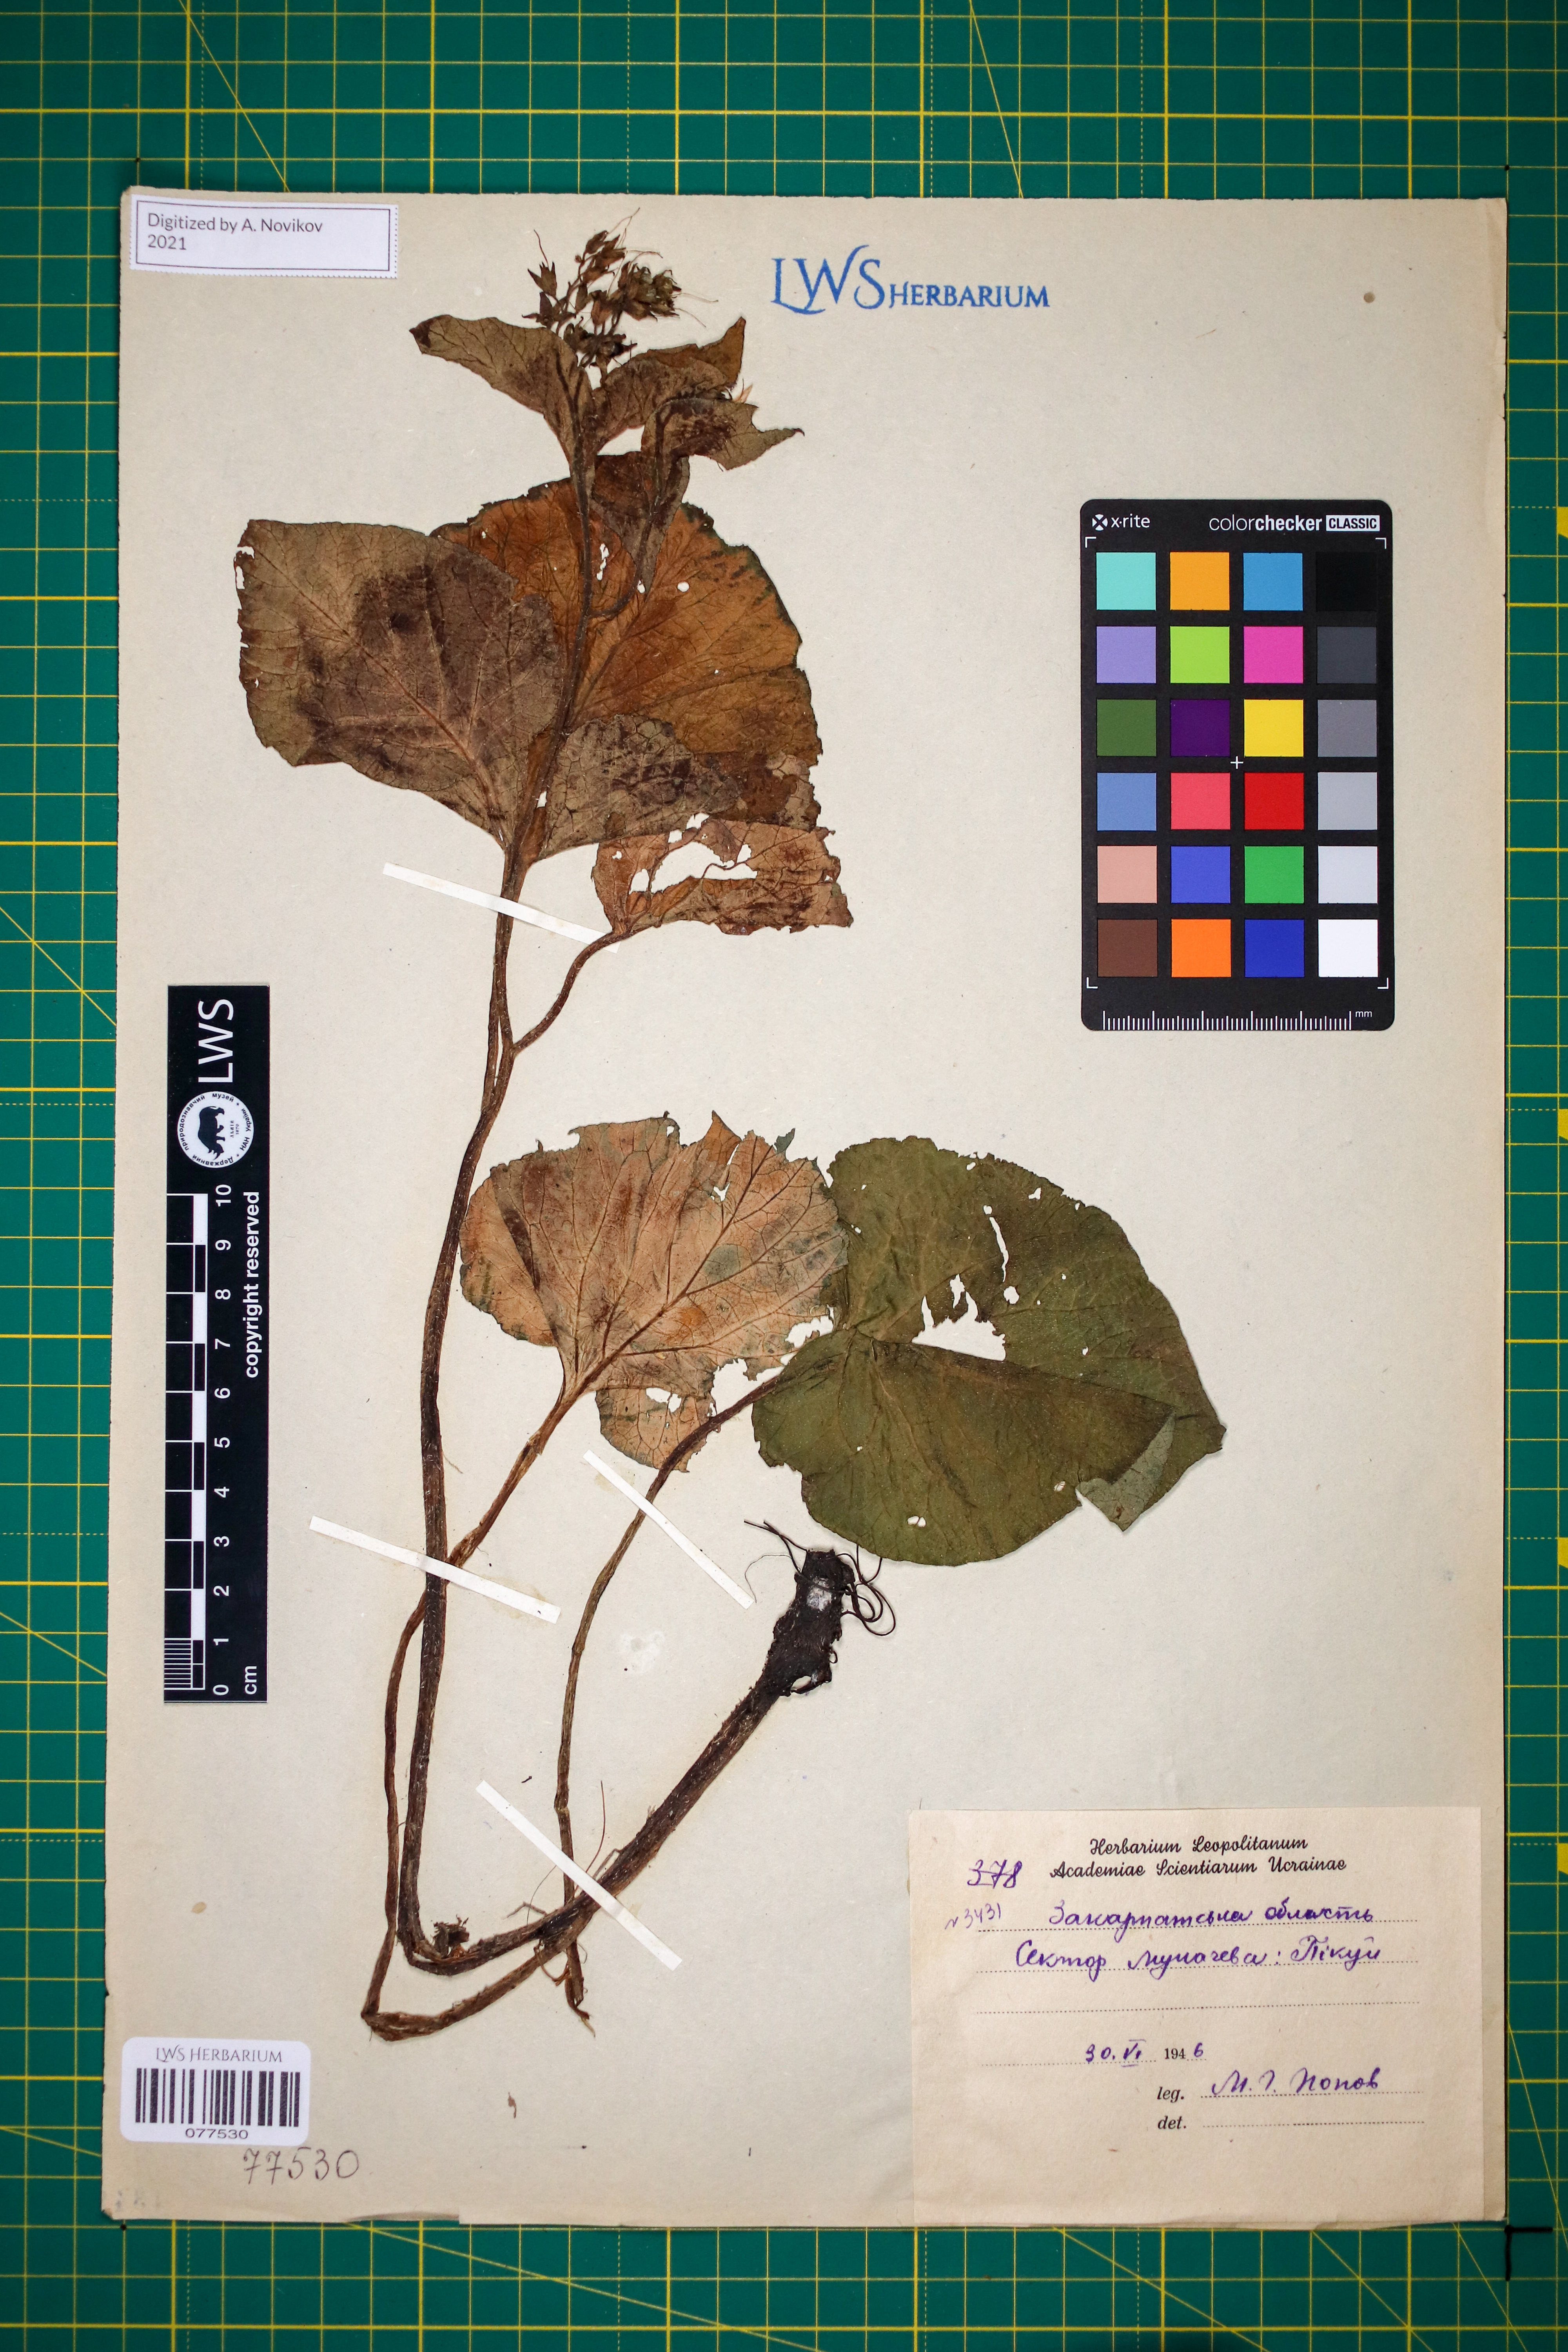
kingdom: Plantae
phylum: Tracheophyta
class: Magnoliopsida
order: Boraginales
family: Boraginaceae
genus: Symphytum
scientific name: Symphytum cordatum
